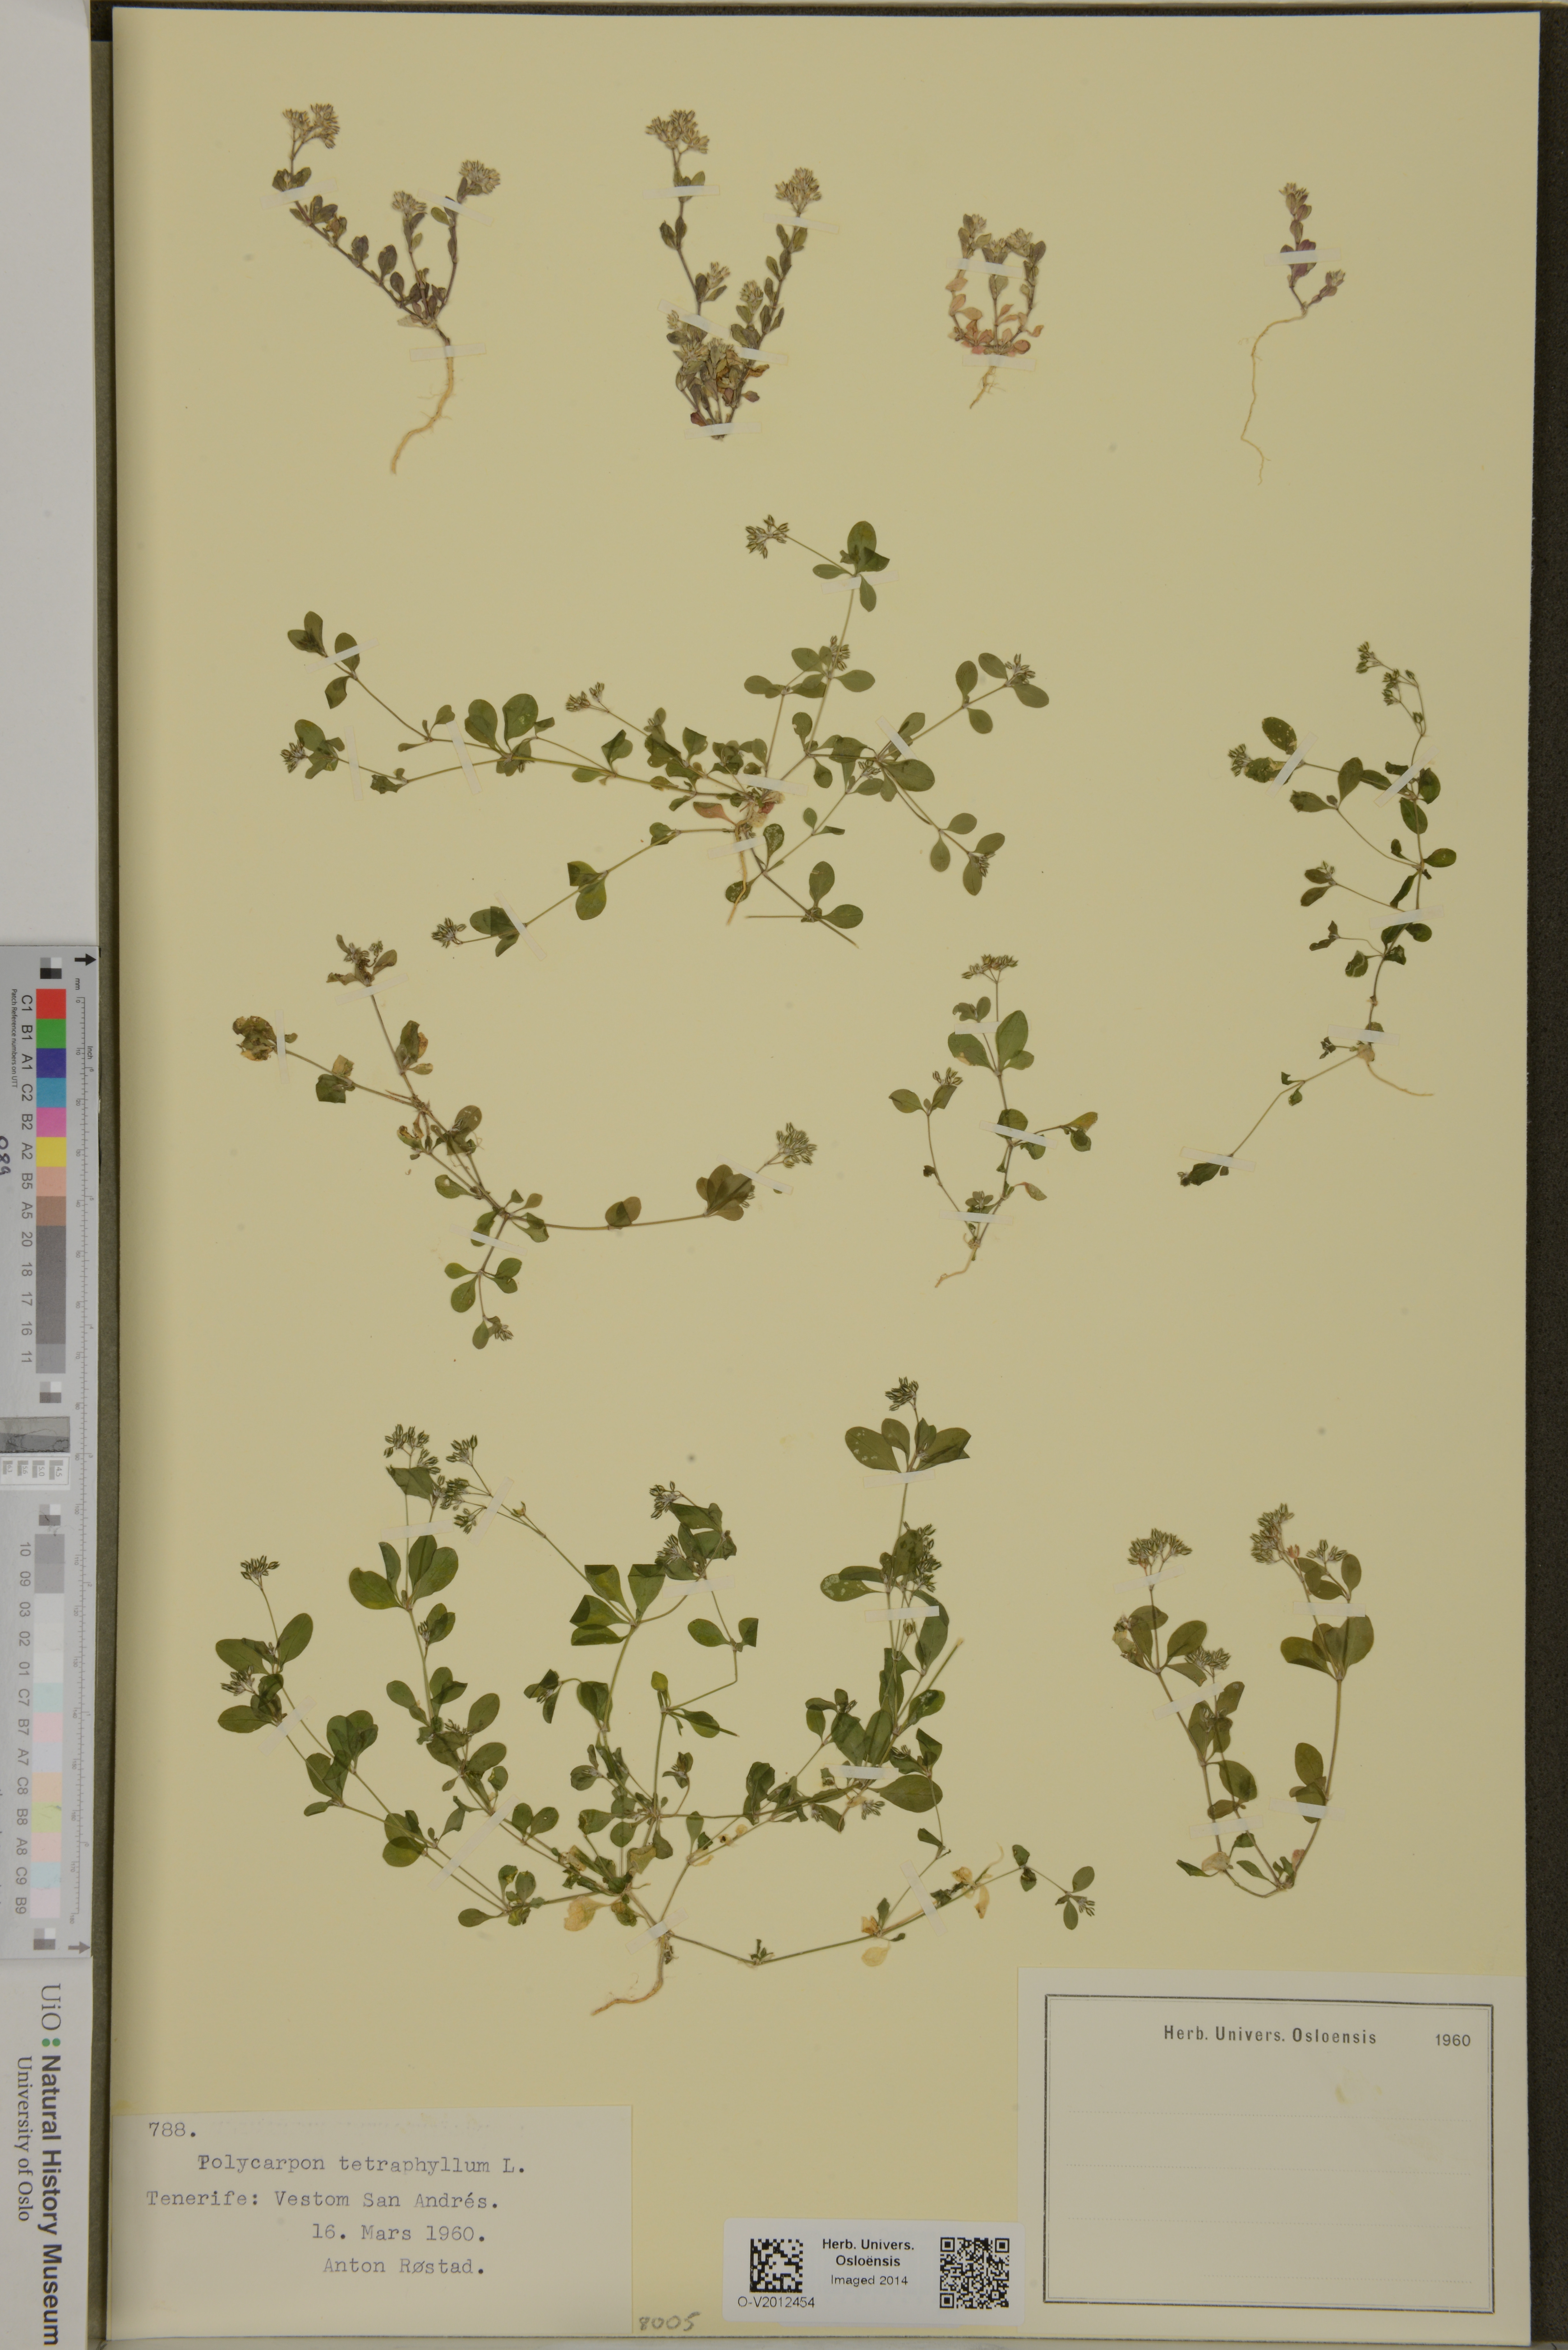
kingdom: Plantae
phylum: Tracheophyta
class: Magnoliopsida
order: Caryophyllales
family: Caryophyllaceae
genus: Polycarpon
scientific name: Polycarpon tetraphyllum
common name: Four-leaved all-seed
